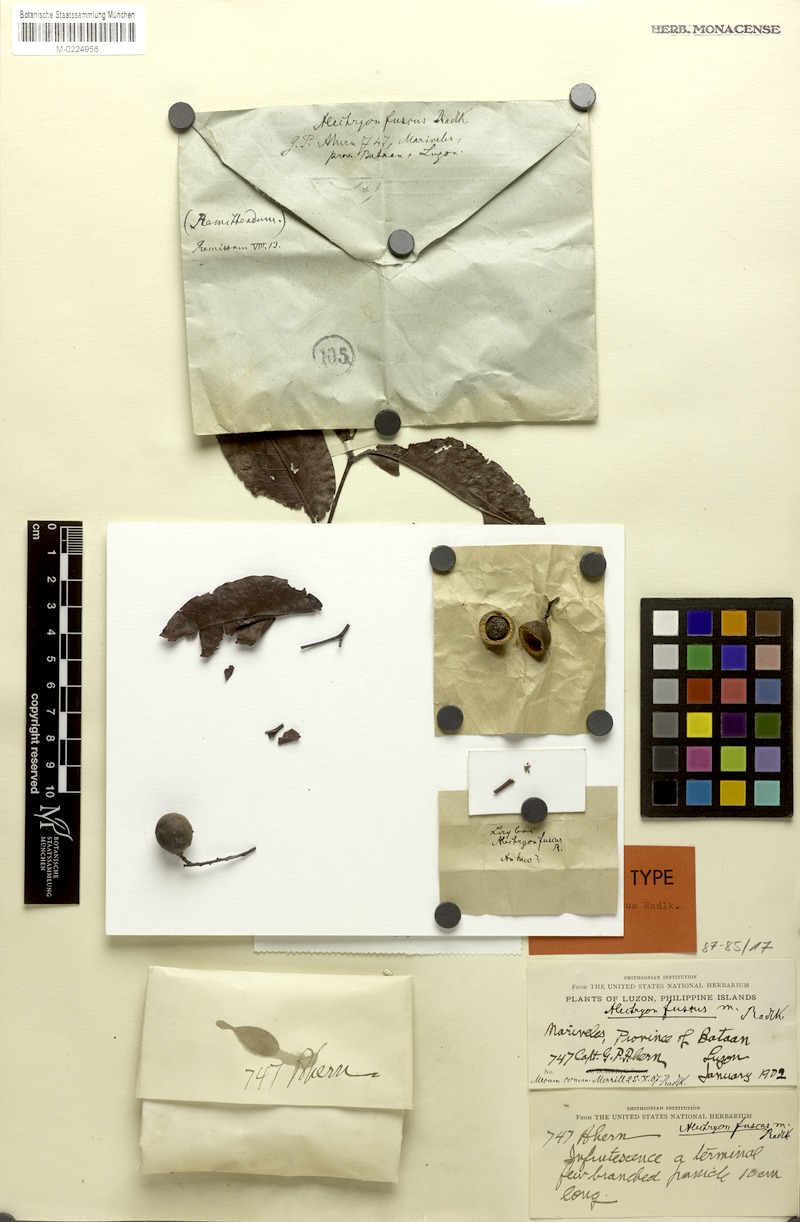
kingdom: Plantae
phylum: Tracheophyta
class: Magnoliopsida
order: Sapindales
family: Sapindaceae
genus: Alectryon
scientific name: Alectryon fuscus
